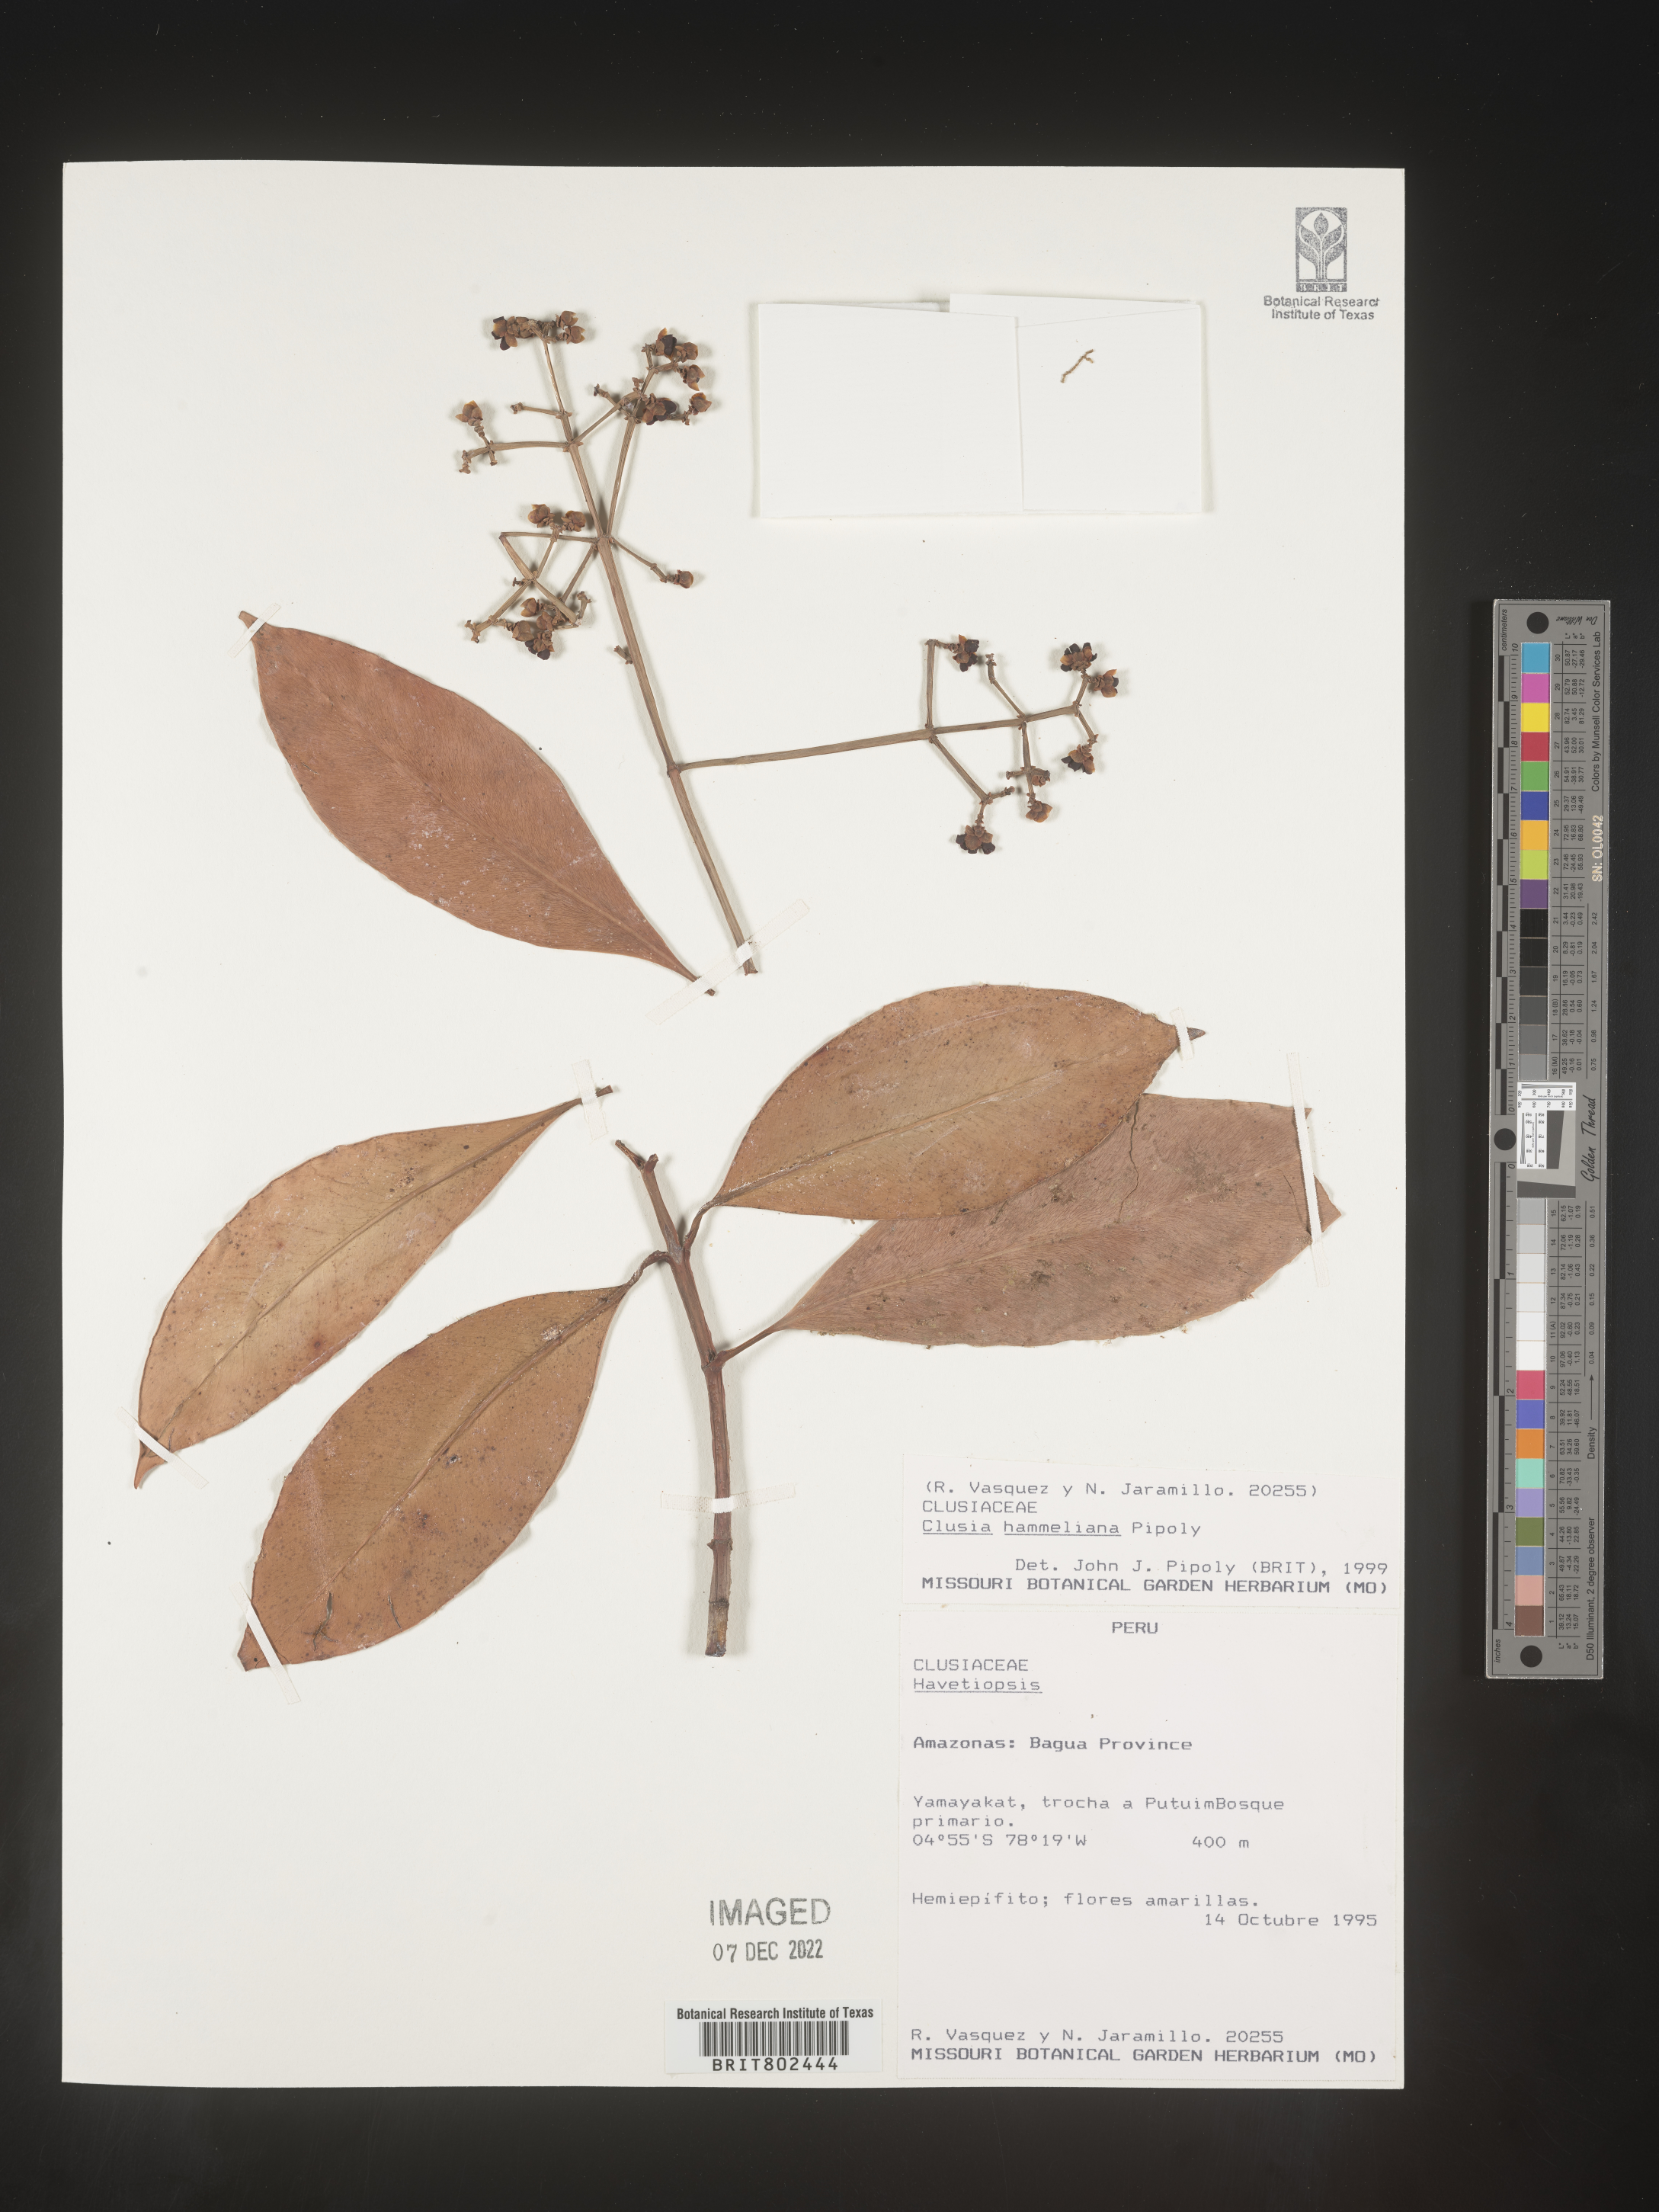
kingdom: Plantae
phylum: Tracheophyta
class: Magnoliopsida
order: Malpighiales
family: Clusiaceae
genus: Clusia
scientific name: Clusia hammeliana
